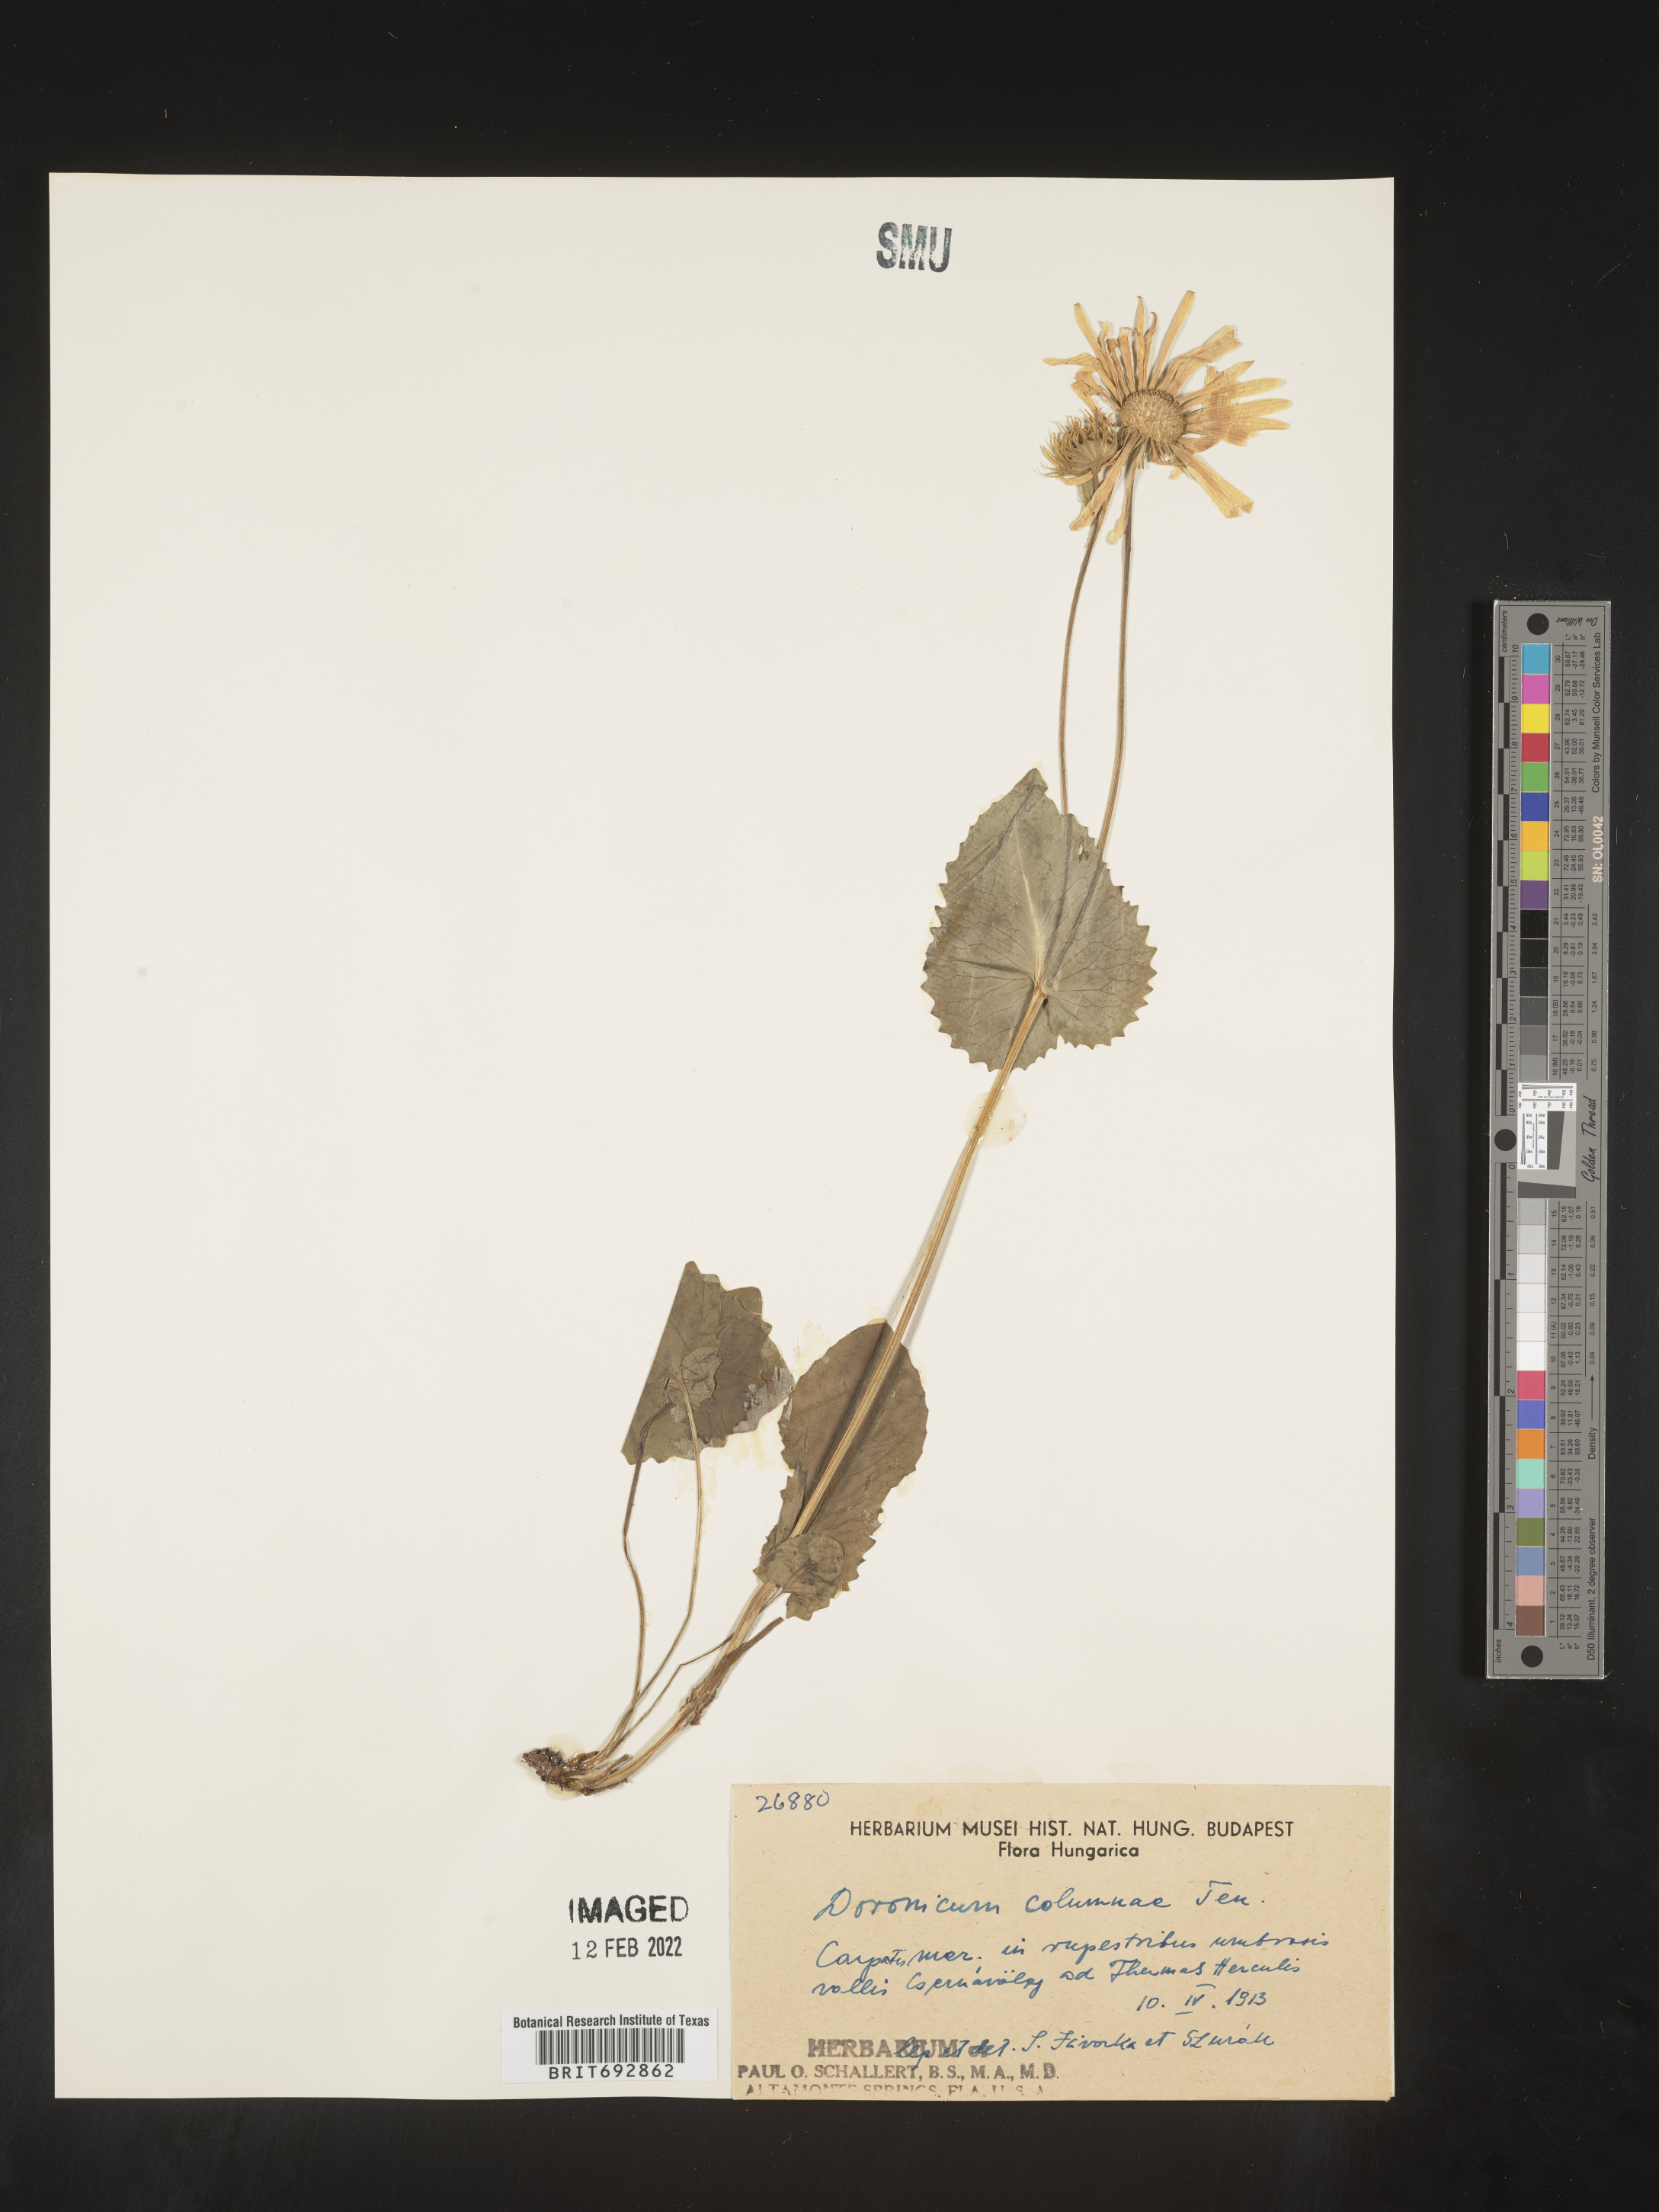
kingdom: Plantae
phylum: Tracheophyta
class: Magnoliopsida
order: Asterales
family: Asteraceae
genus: Doronicum
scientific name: Doronicum
